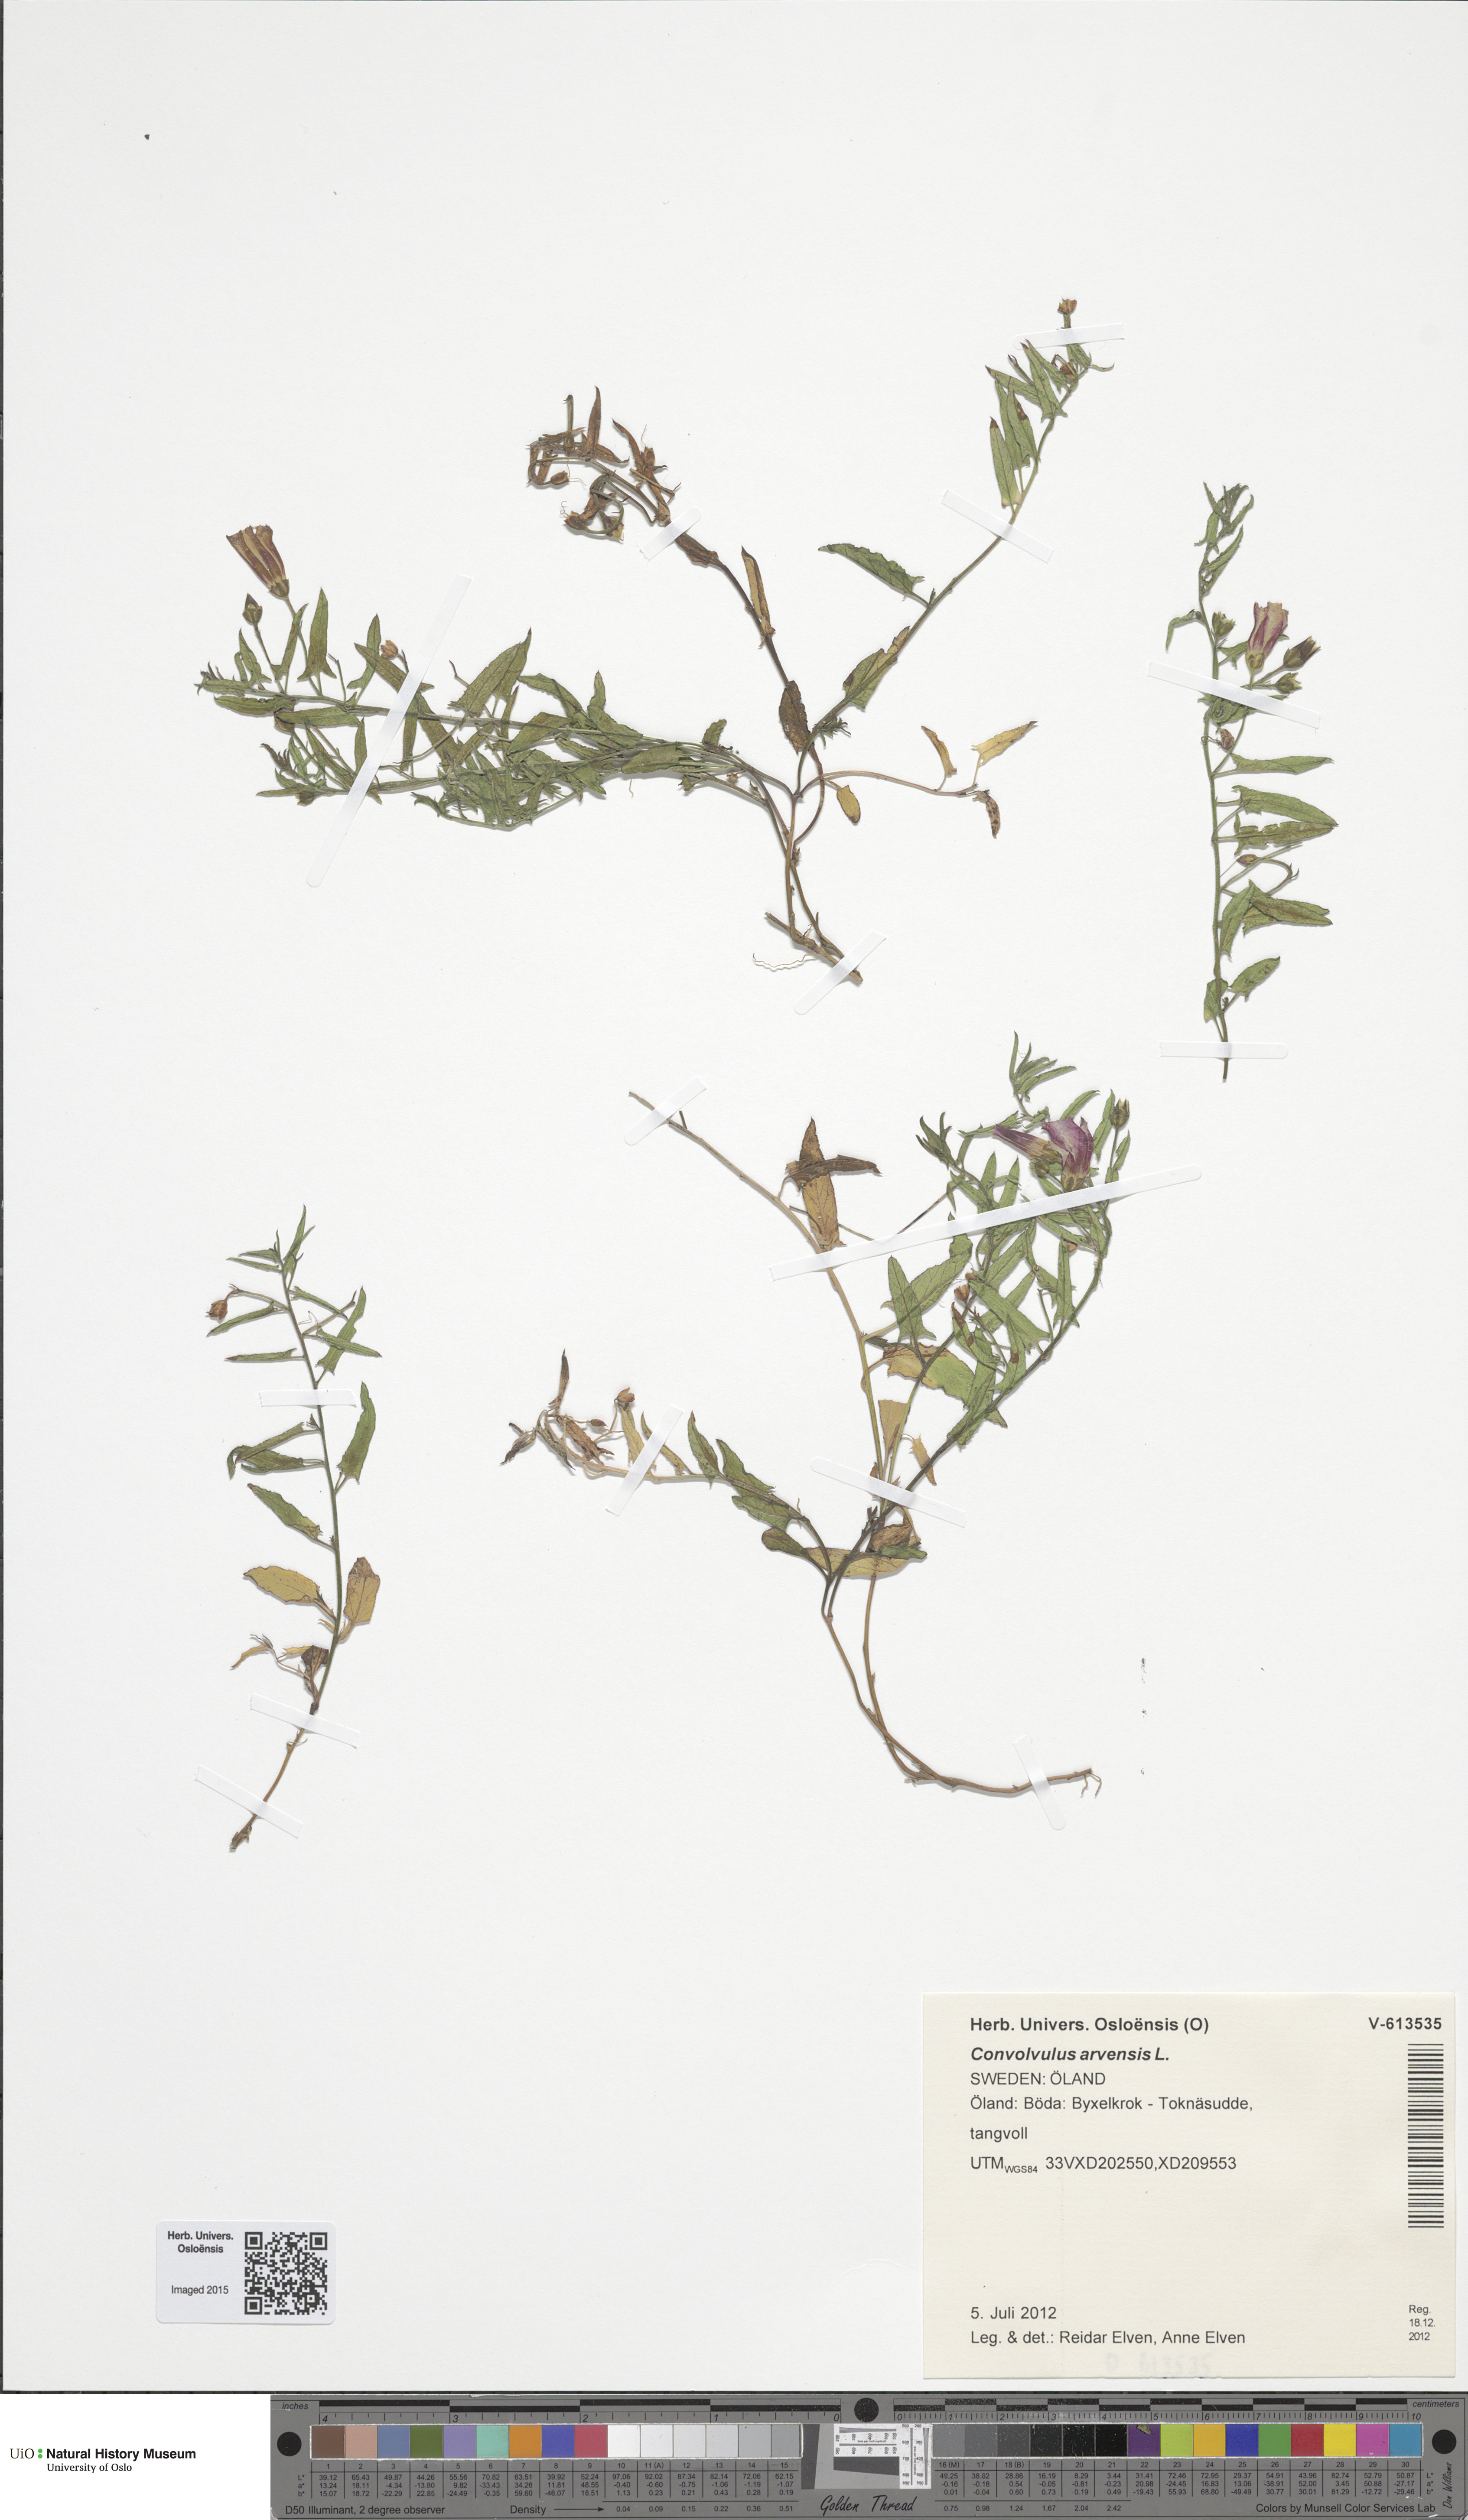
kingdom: Plantae
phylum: Tracheophyta
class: Magnoliopsida
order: Solanales
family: Convolvulaceae
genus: Convolvulus
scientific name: Convolvulus arvensis
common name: Field bindweed
